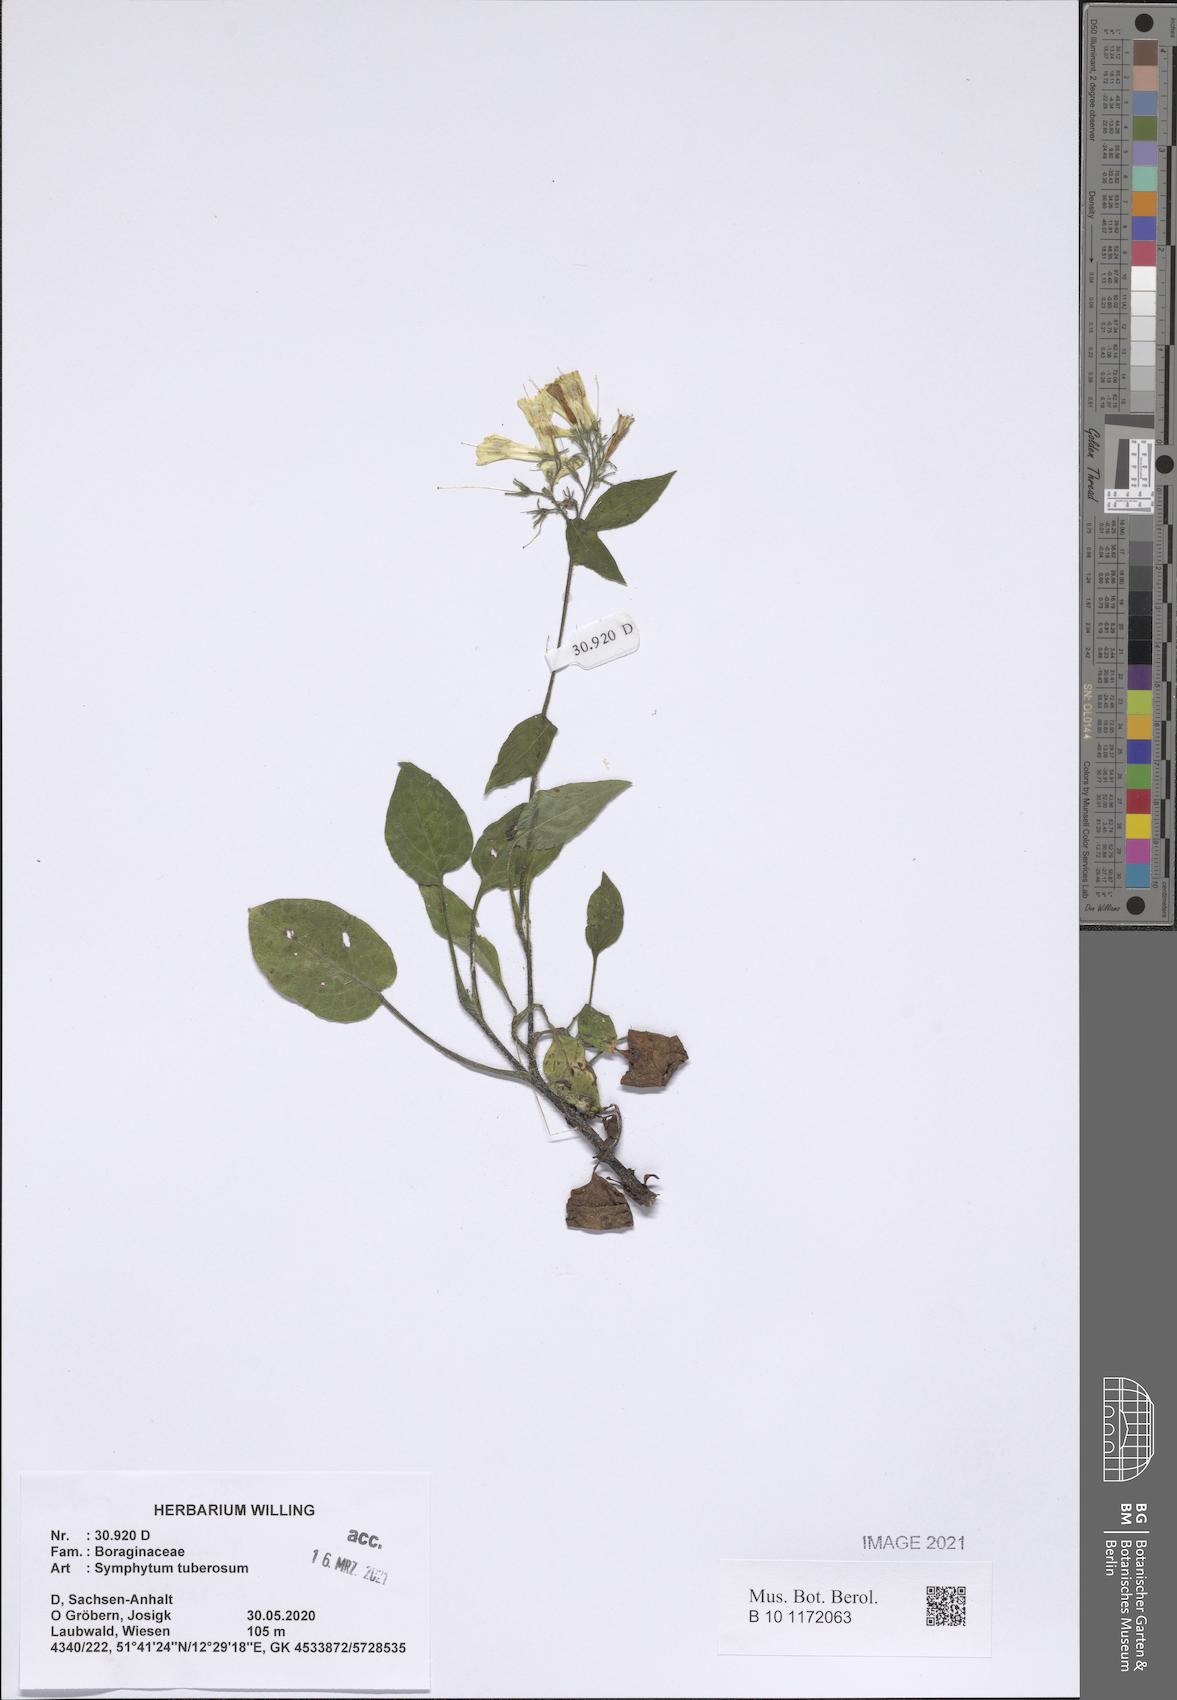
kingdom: Plantae
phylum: Tracheophyta
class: Magnoliopsida
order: Boraginales
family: Boraginaceae
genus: Symphytum
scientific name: Symphytum tuberosum
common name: Tuberous comfrey
